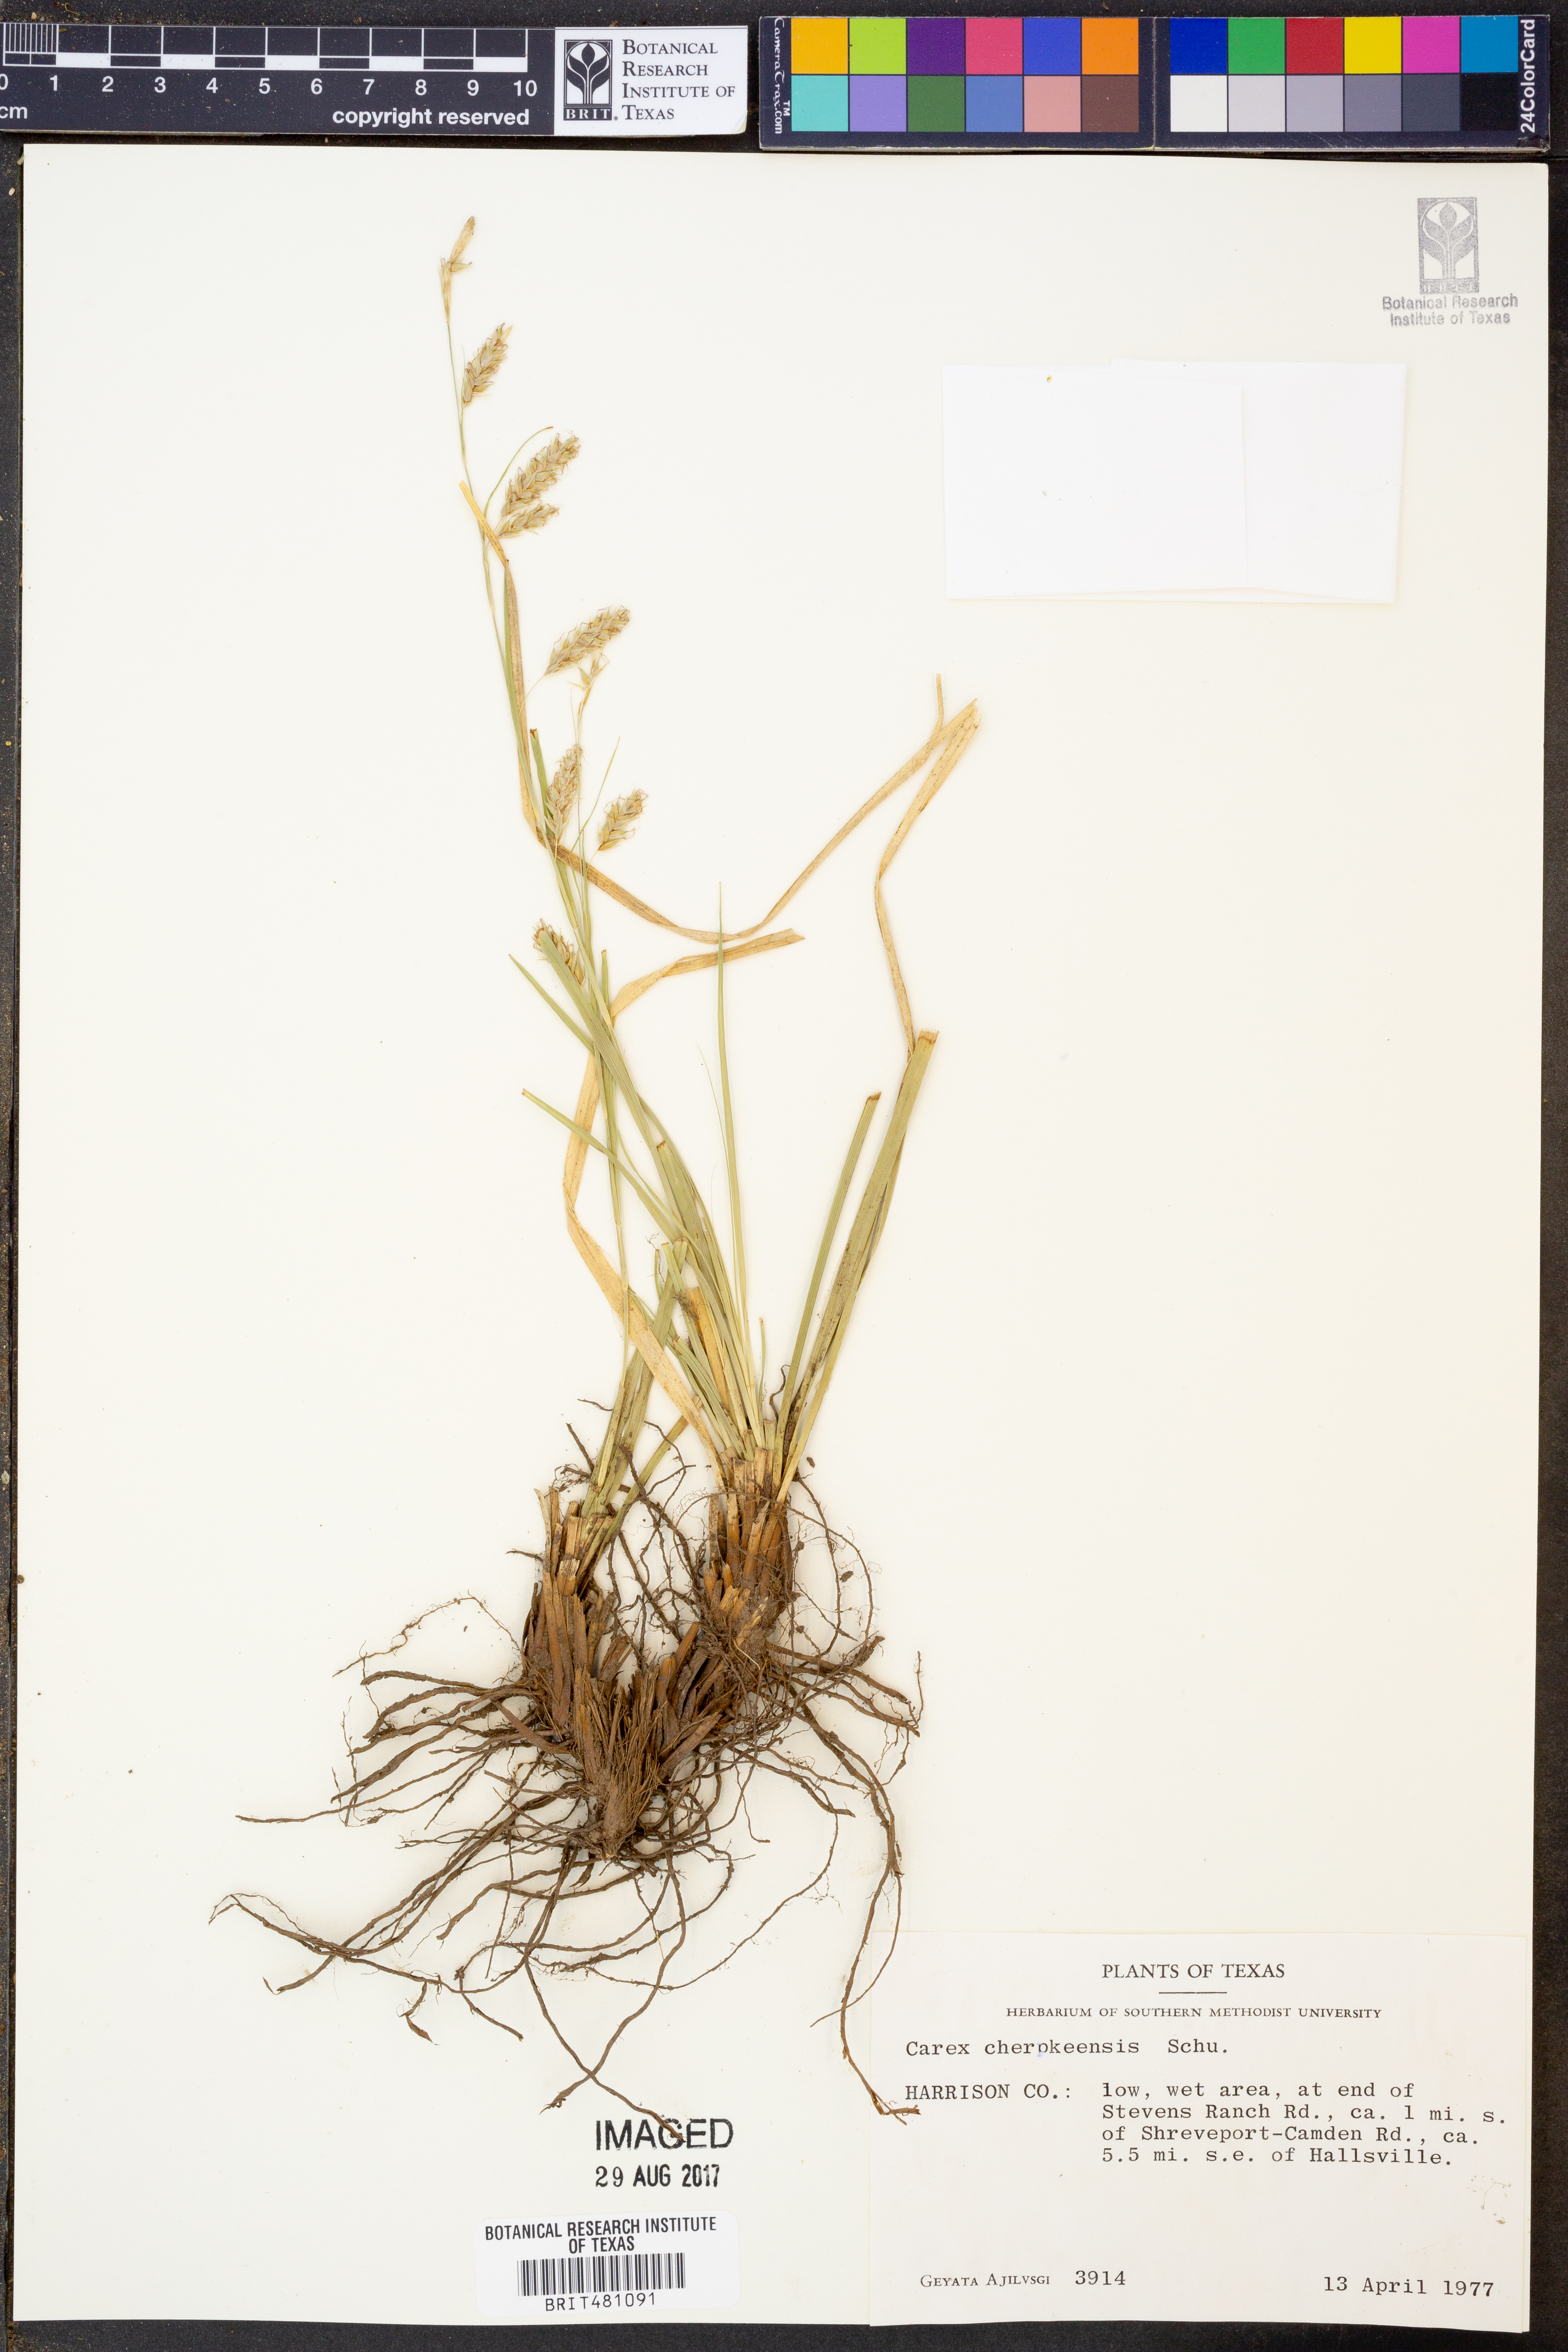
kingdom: Plantae
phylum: Tracheophyta
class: Liliopsida
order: Poales
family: Cyperaceae
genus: Carex
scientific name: Carex cherokeensis
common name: Cherokee sedge
